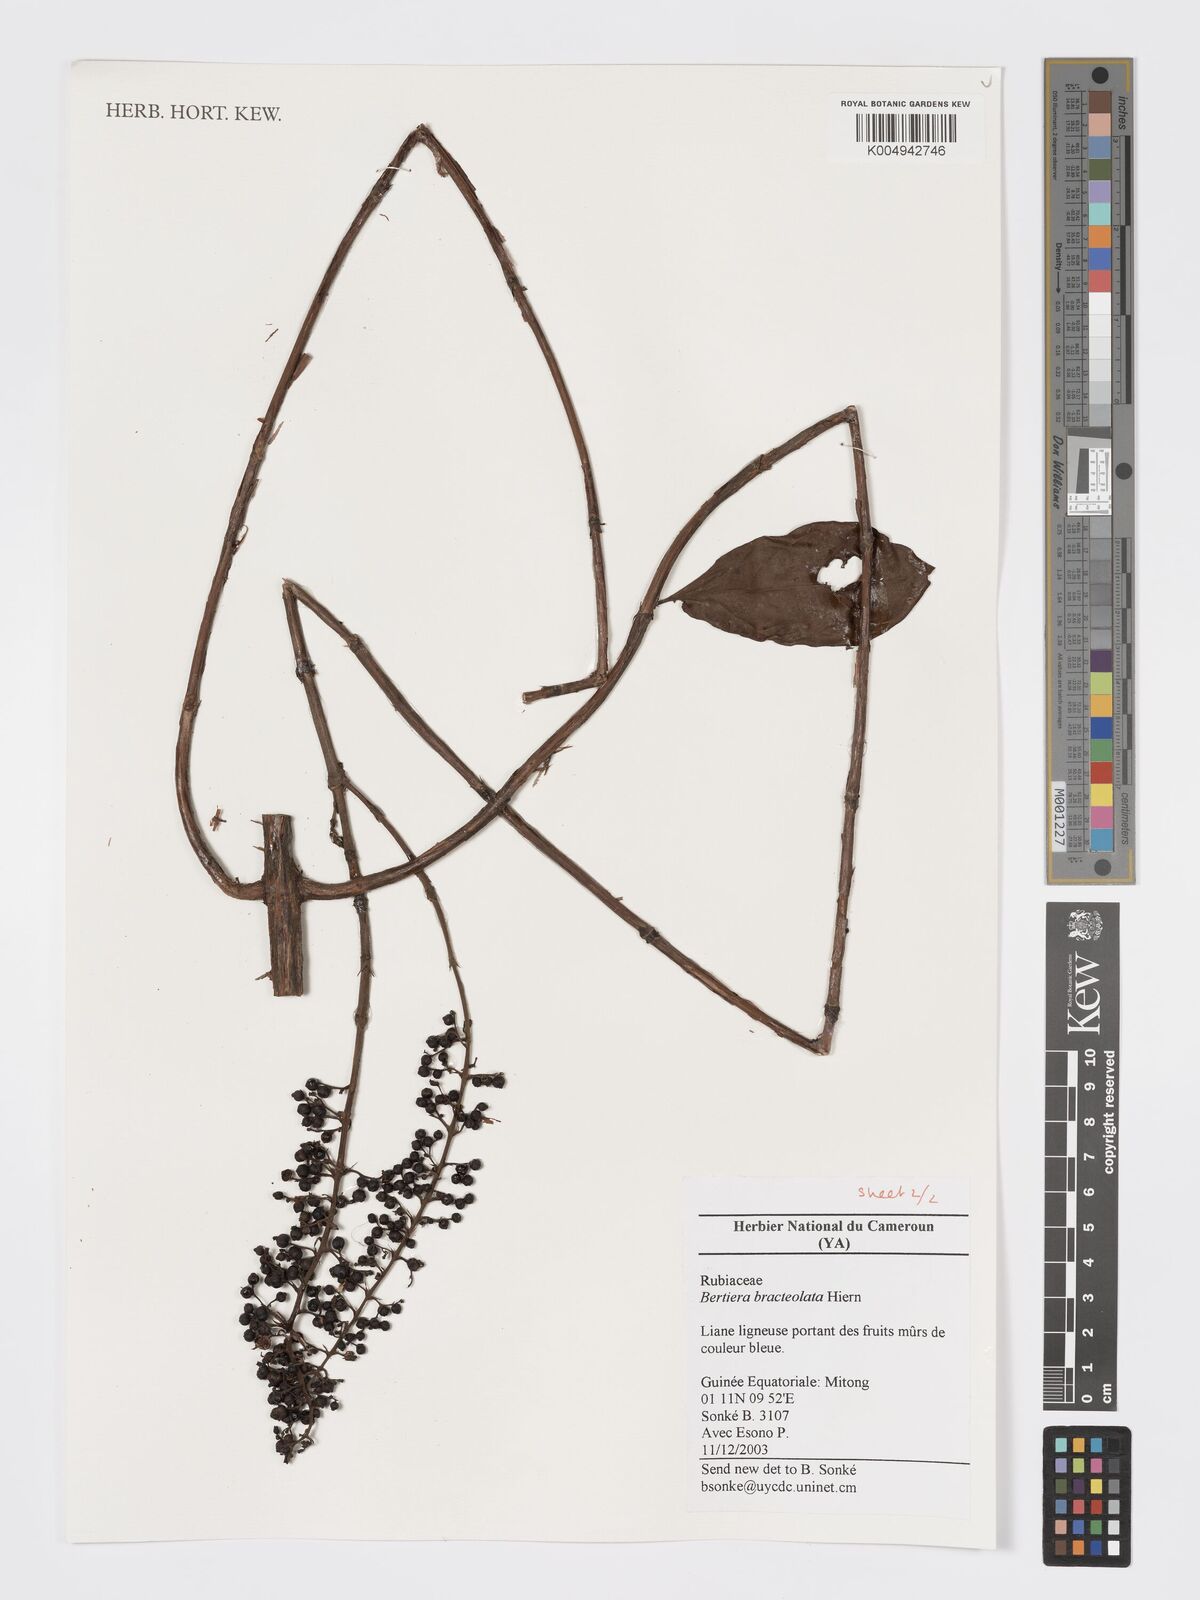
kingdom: Plantae
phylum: Tracheophyta
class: Magnoliopsida
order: Gentianales
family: Rubiaceae
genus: Bertiera
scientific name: Bertiera bracteolata
